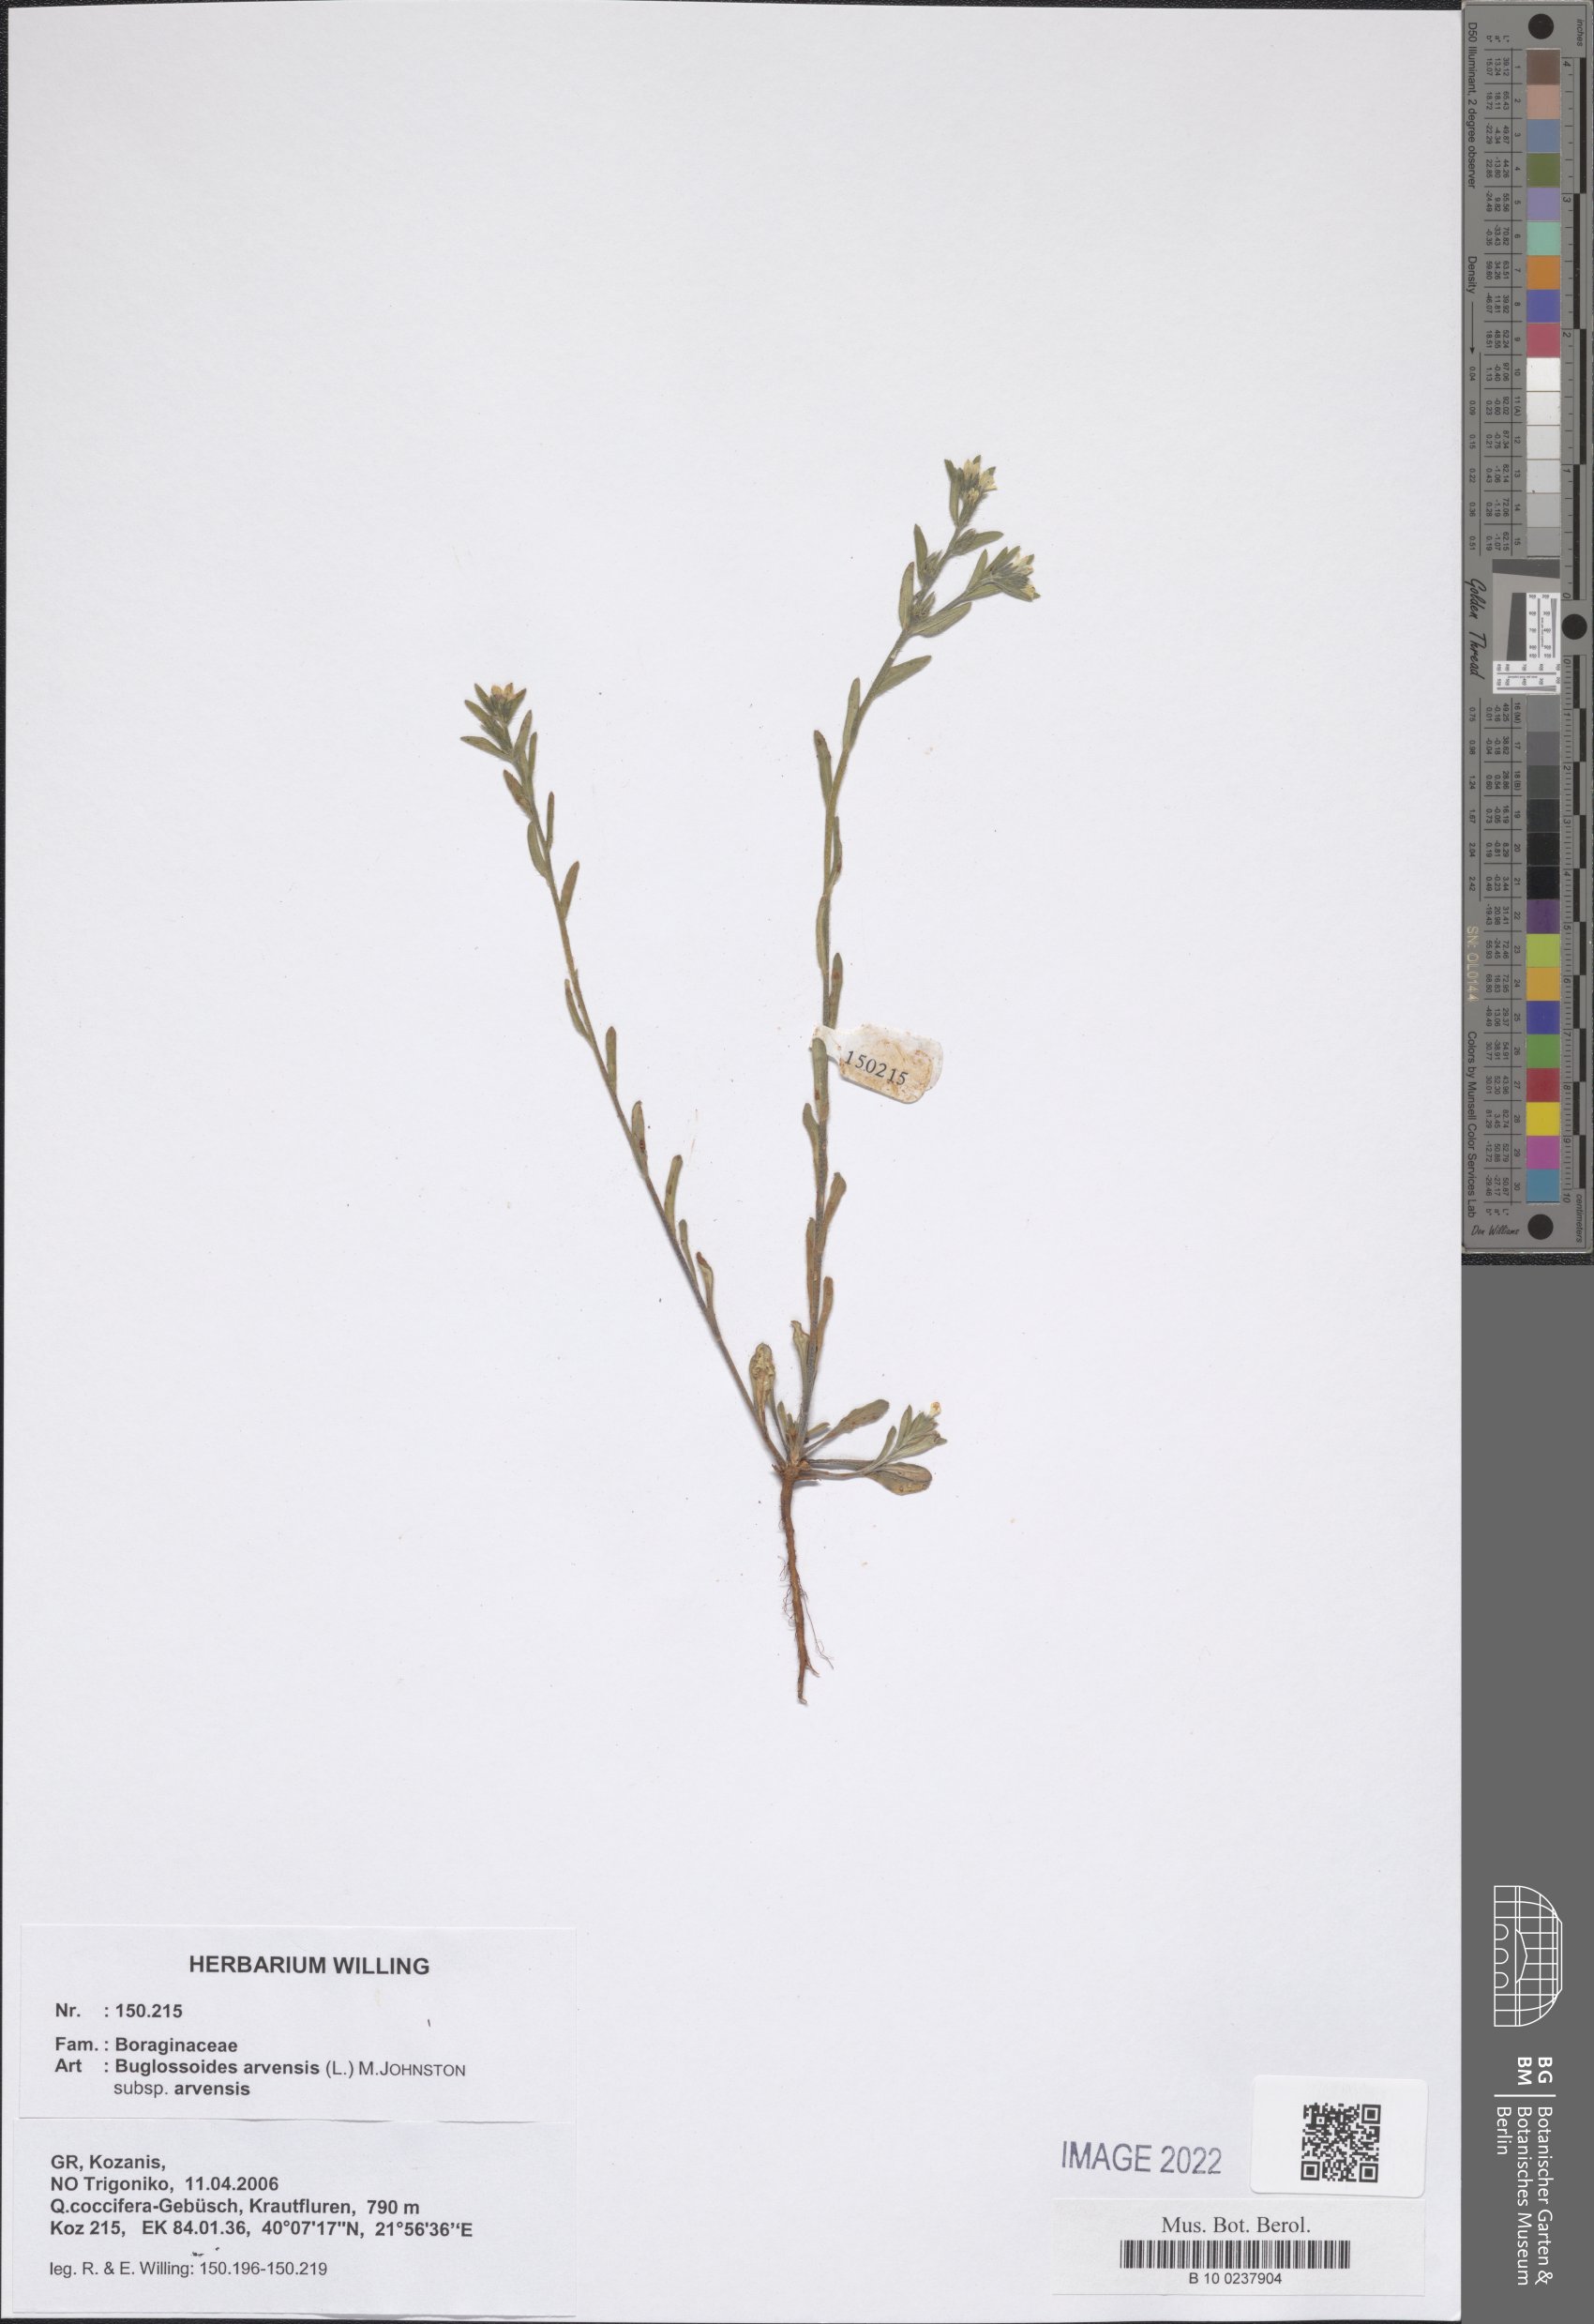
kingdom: Plantae
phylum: Tracheophyta
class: Magnoliopsida
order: Boraginales
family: Boraginaceae
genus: Buglossoides
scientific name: Buglossoides arvensis
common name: Corn gromwell
